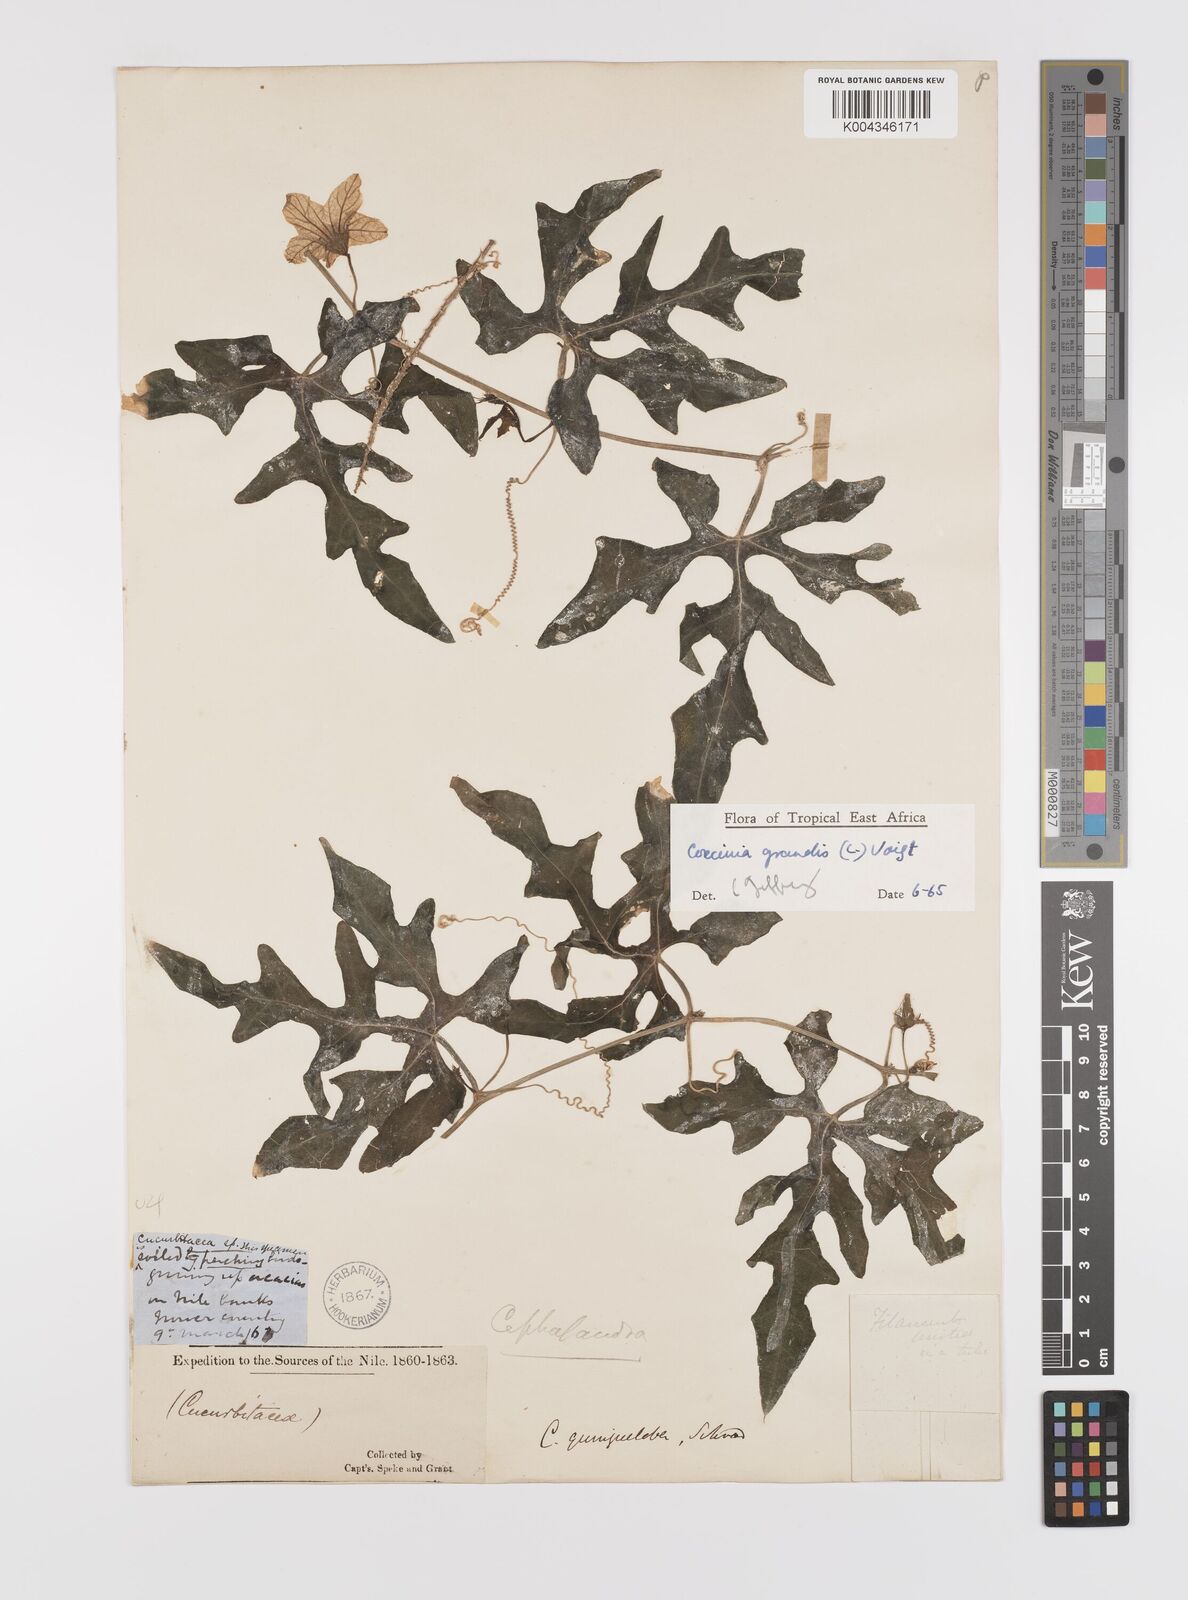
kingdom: Plantae
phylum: Tracheophyta
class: Magnoliopsida
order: Cucurbitales
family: Cucurbitaceae
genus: Coccinia
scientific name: Coccinia grandis
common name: Ivy gourd
